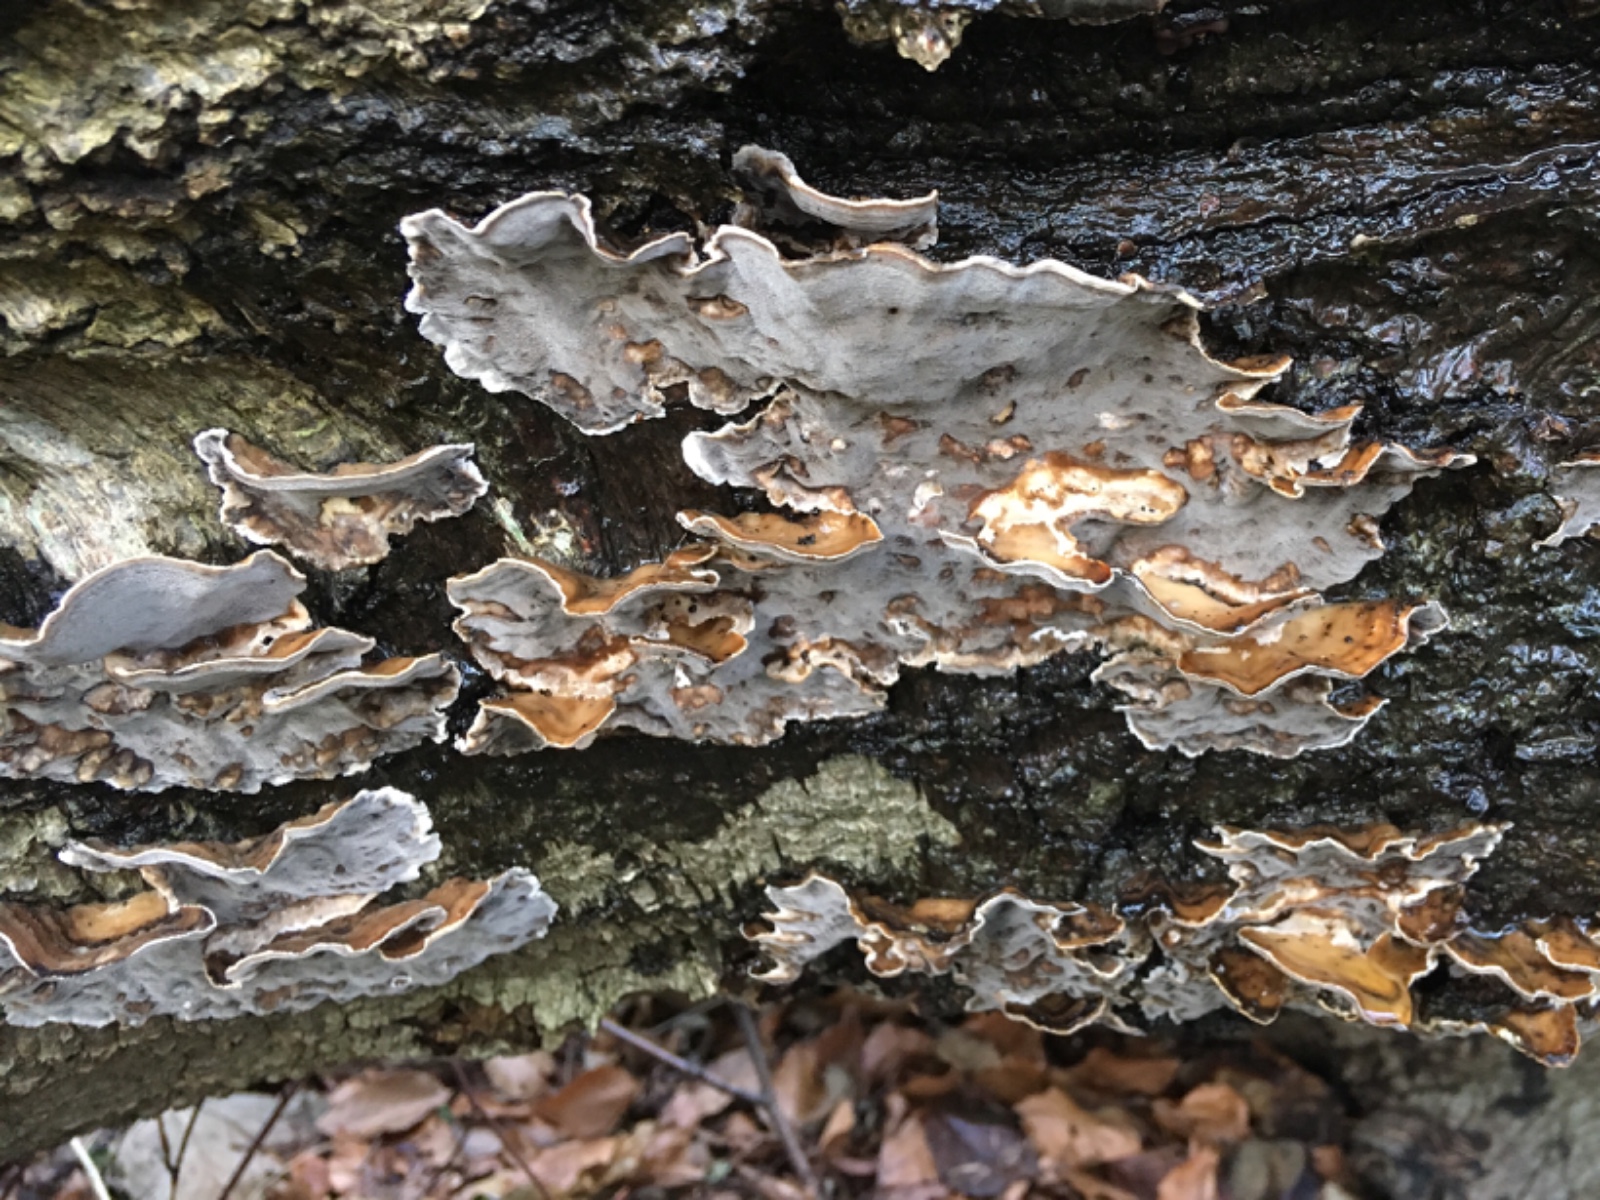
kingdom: Fungi
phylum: Basidiomycota
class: Agaricomycetes
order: Polyporales
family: Phanerochaetaceae
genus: Bjerkandera
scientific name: Bjerkandera adusta
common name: sveden sodporesvamp
